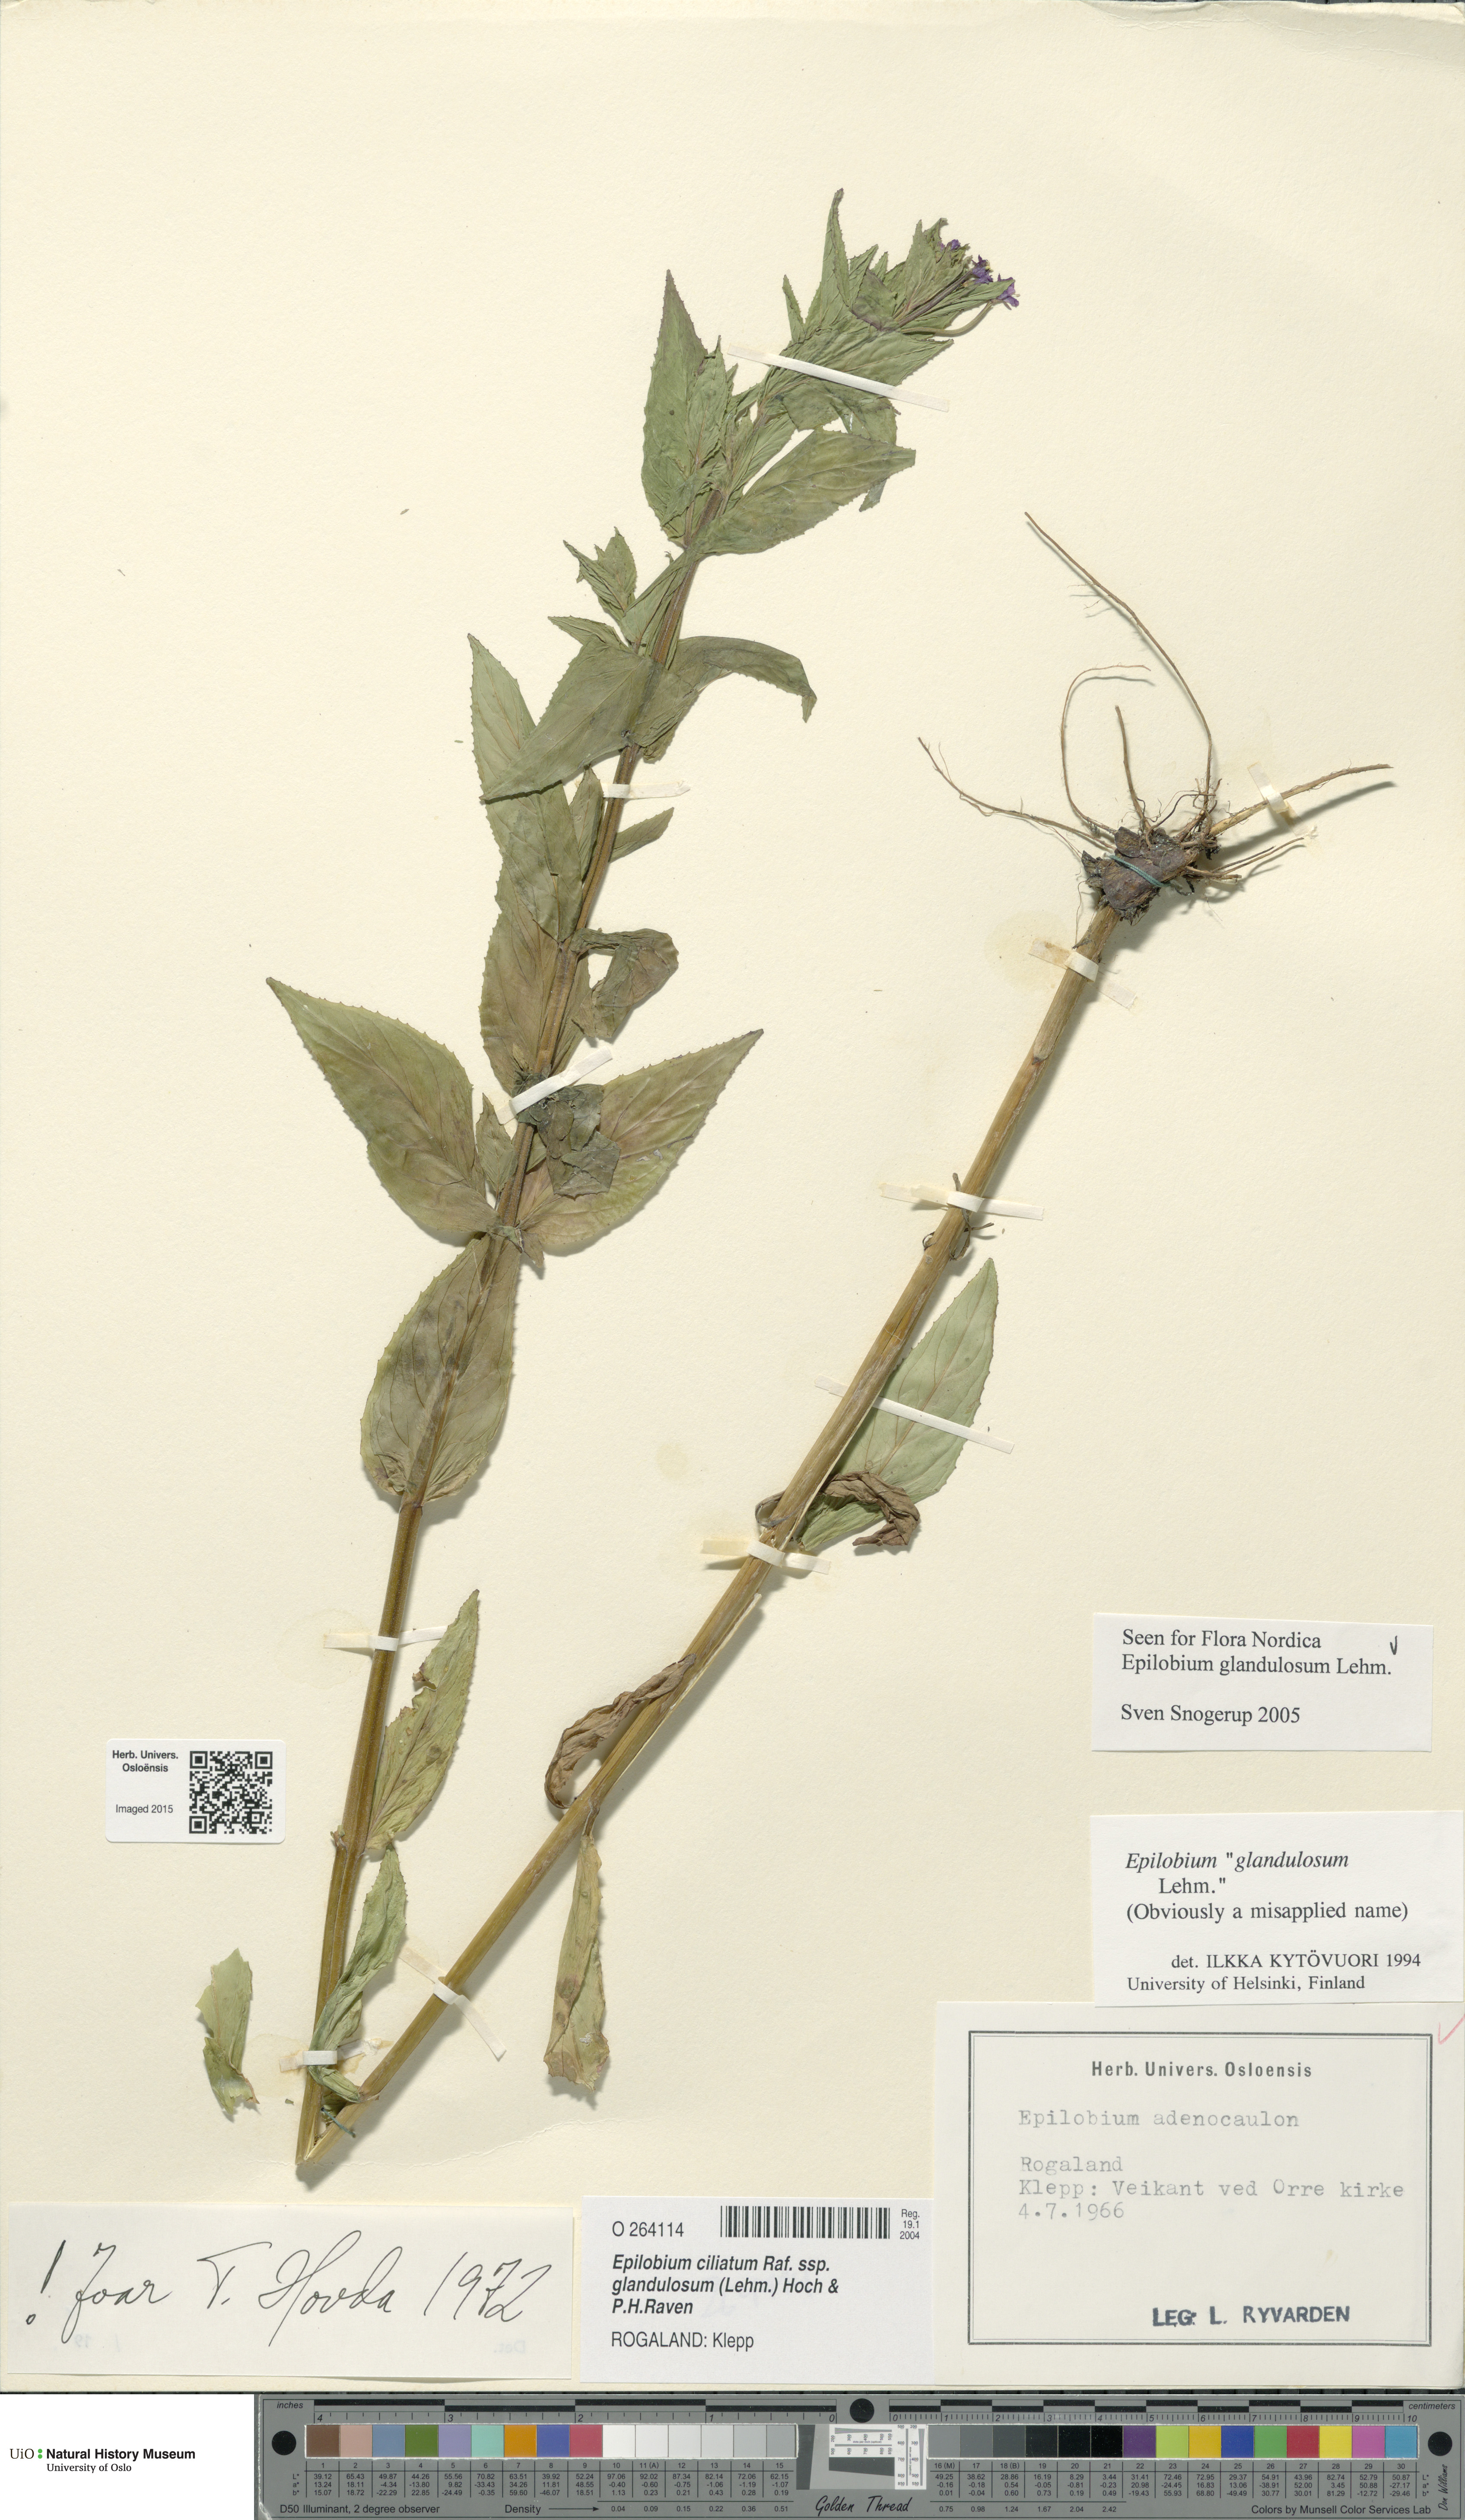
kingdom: Plantae
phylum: Tracheophyta
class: Magnoliopsida
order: Myrtales
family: Onagraceae
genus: Epilobium
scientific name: Epilobium ciliatum
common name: American willowherb
